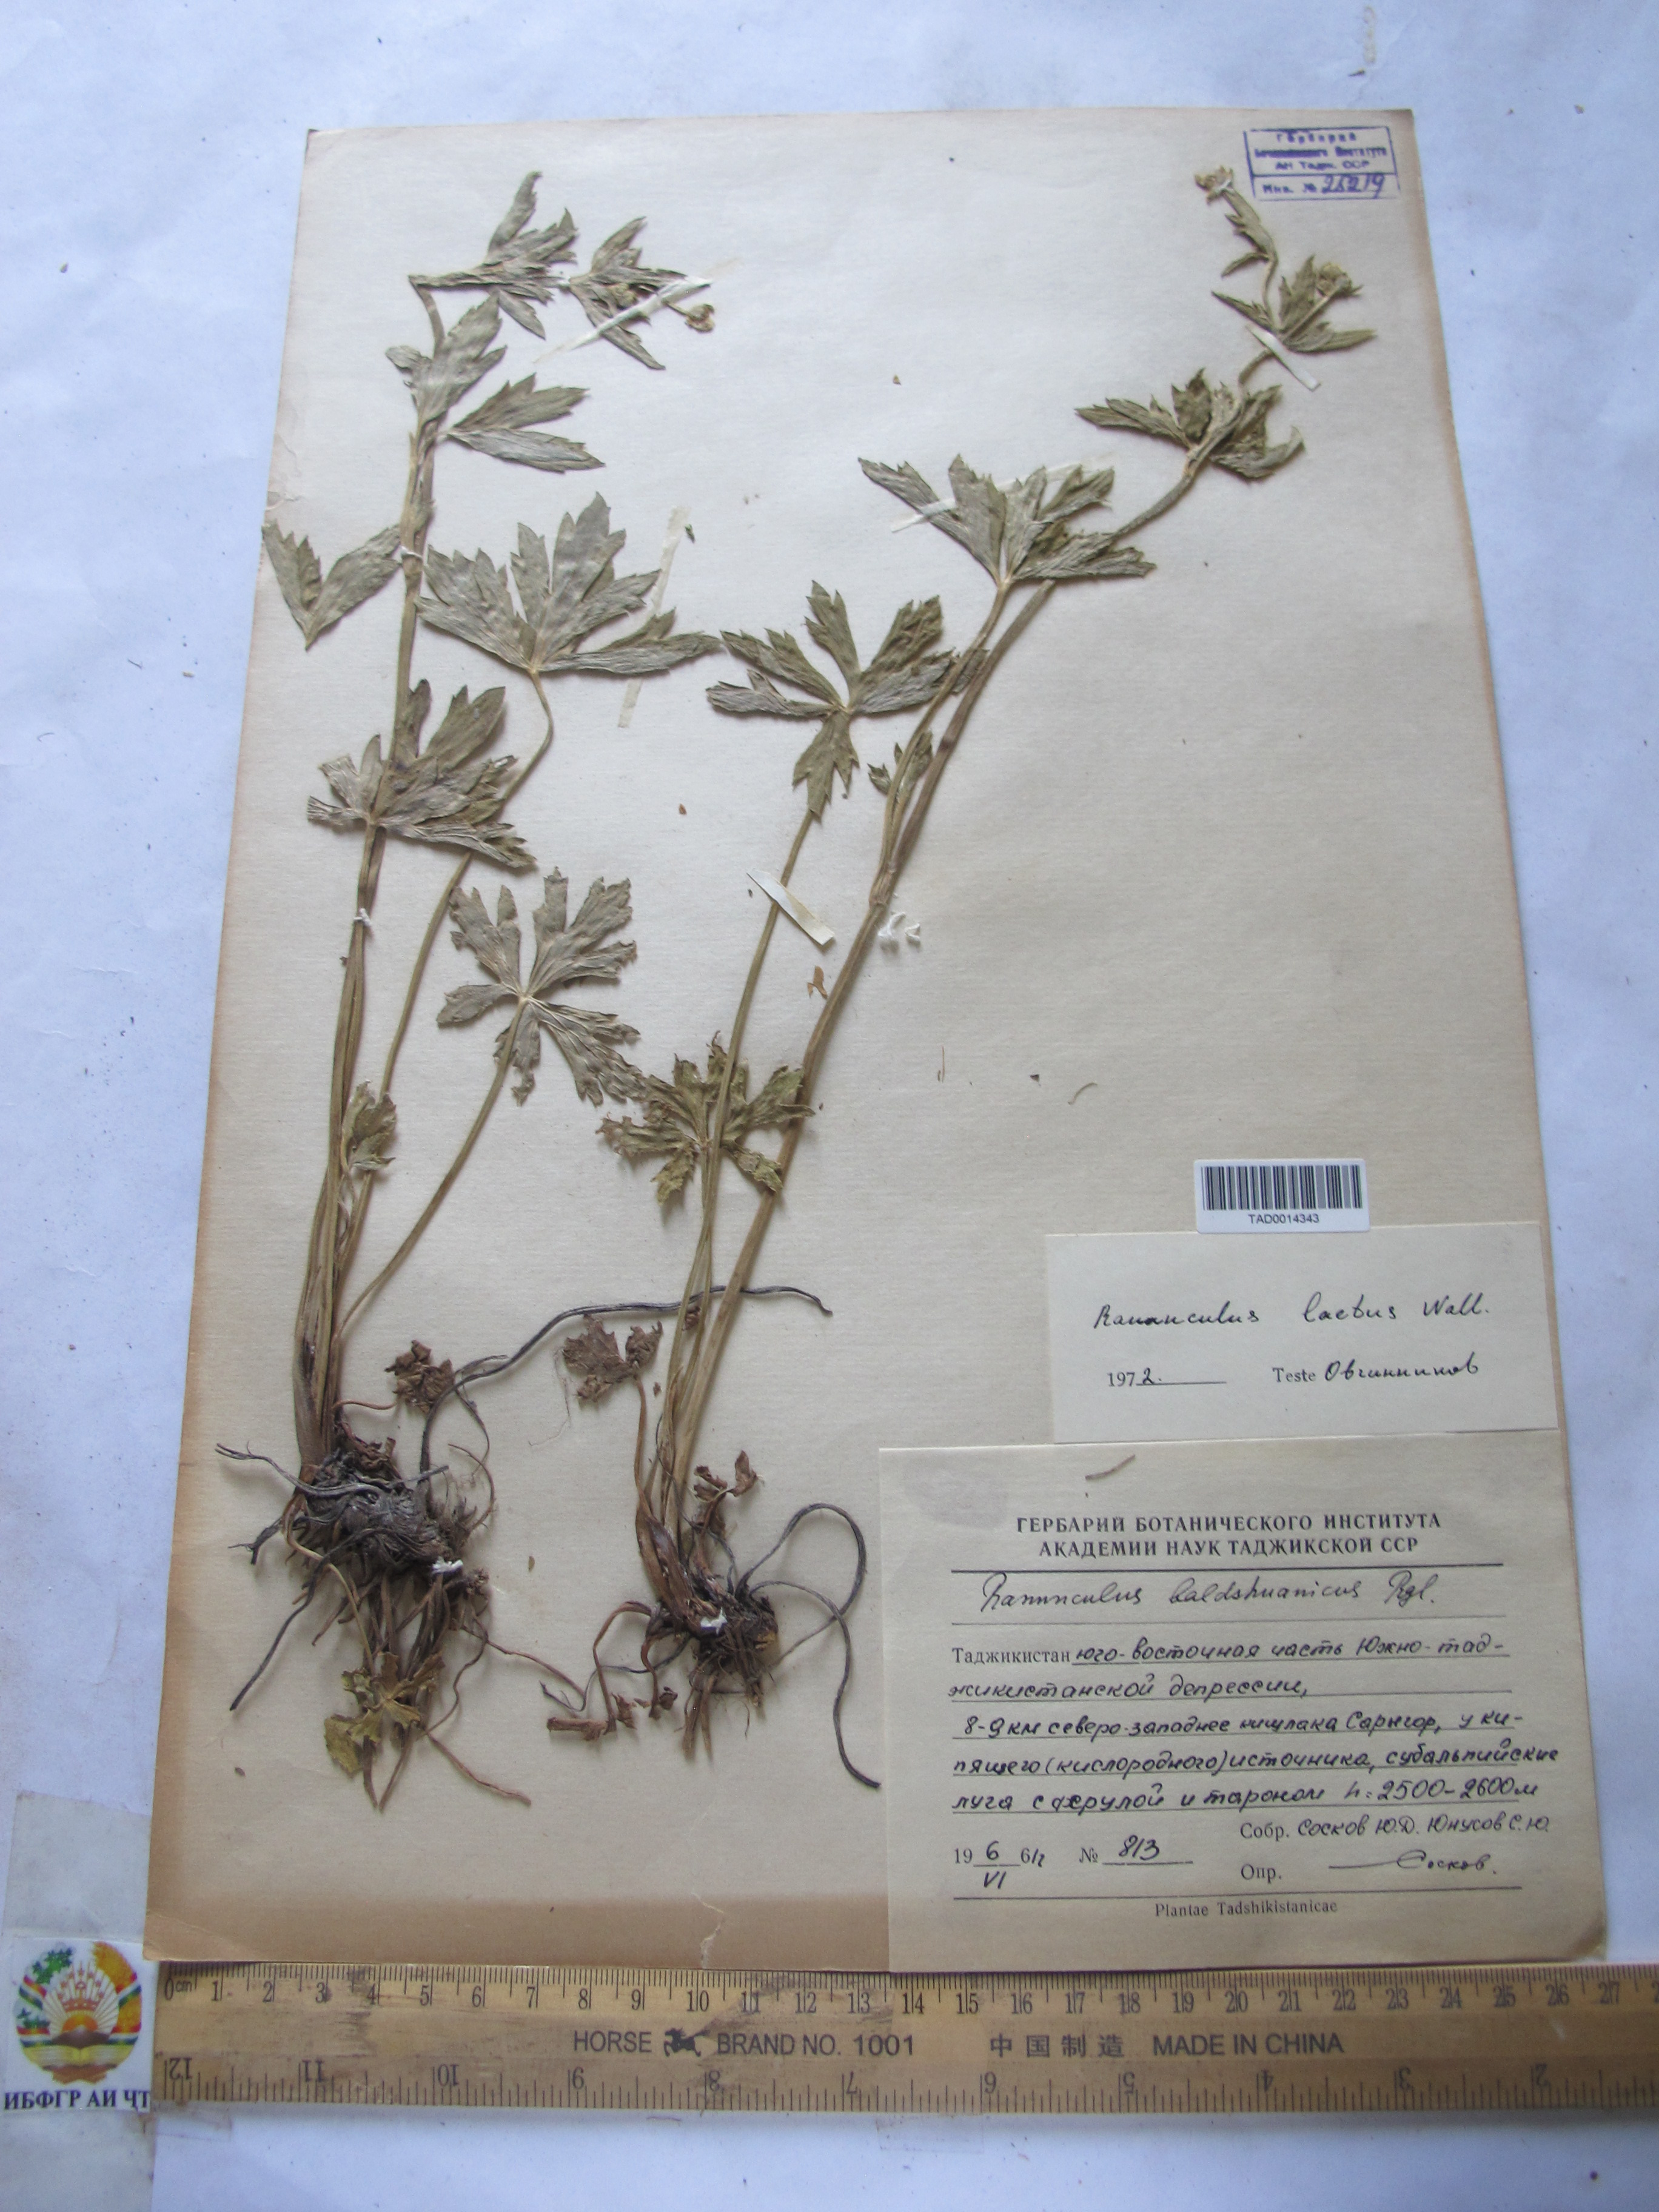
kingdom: Plantae
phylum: Tracheophyta
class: Magnoliopsida
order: Ranunculales
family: Ranunculaceae
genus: Ranunculus
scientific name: Ranunculus distans
